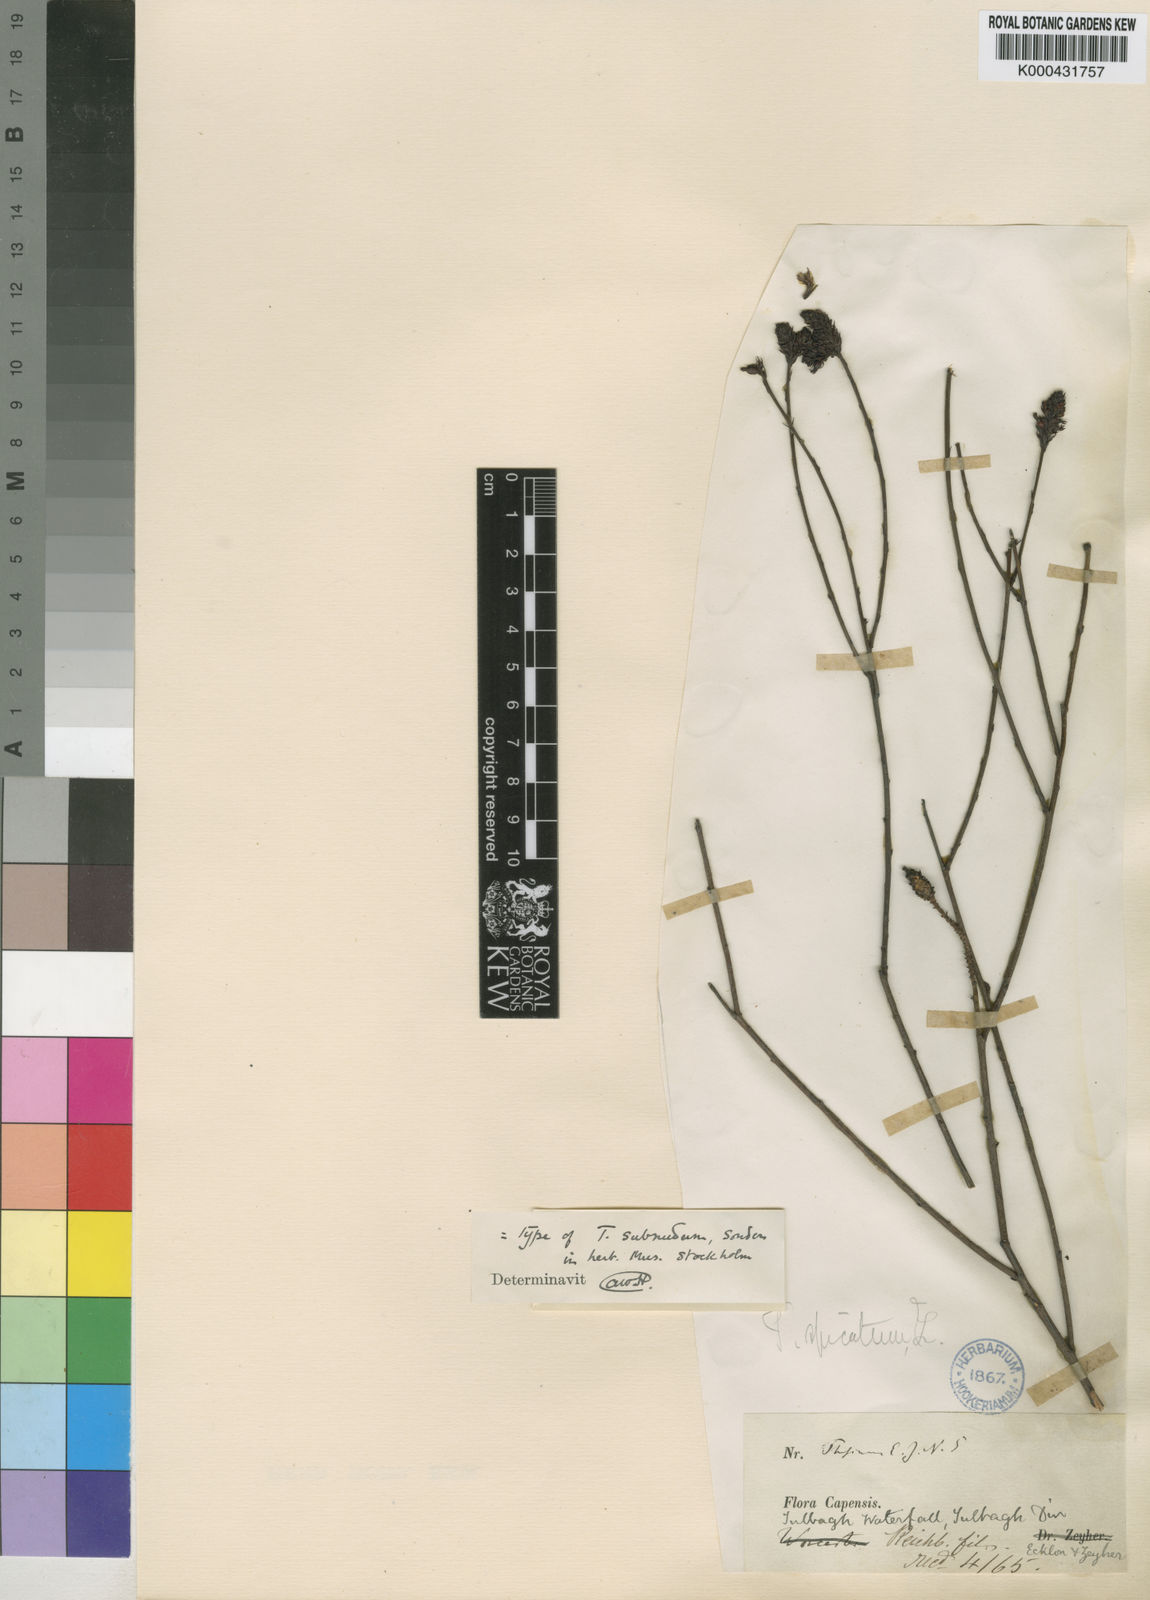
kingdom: Plantae
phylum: Tracheophyta
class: Magnoliopsida
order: Santalales
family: Thesiaceae
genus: Thesium
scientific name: Thesium subnudum
